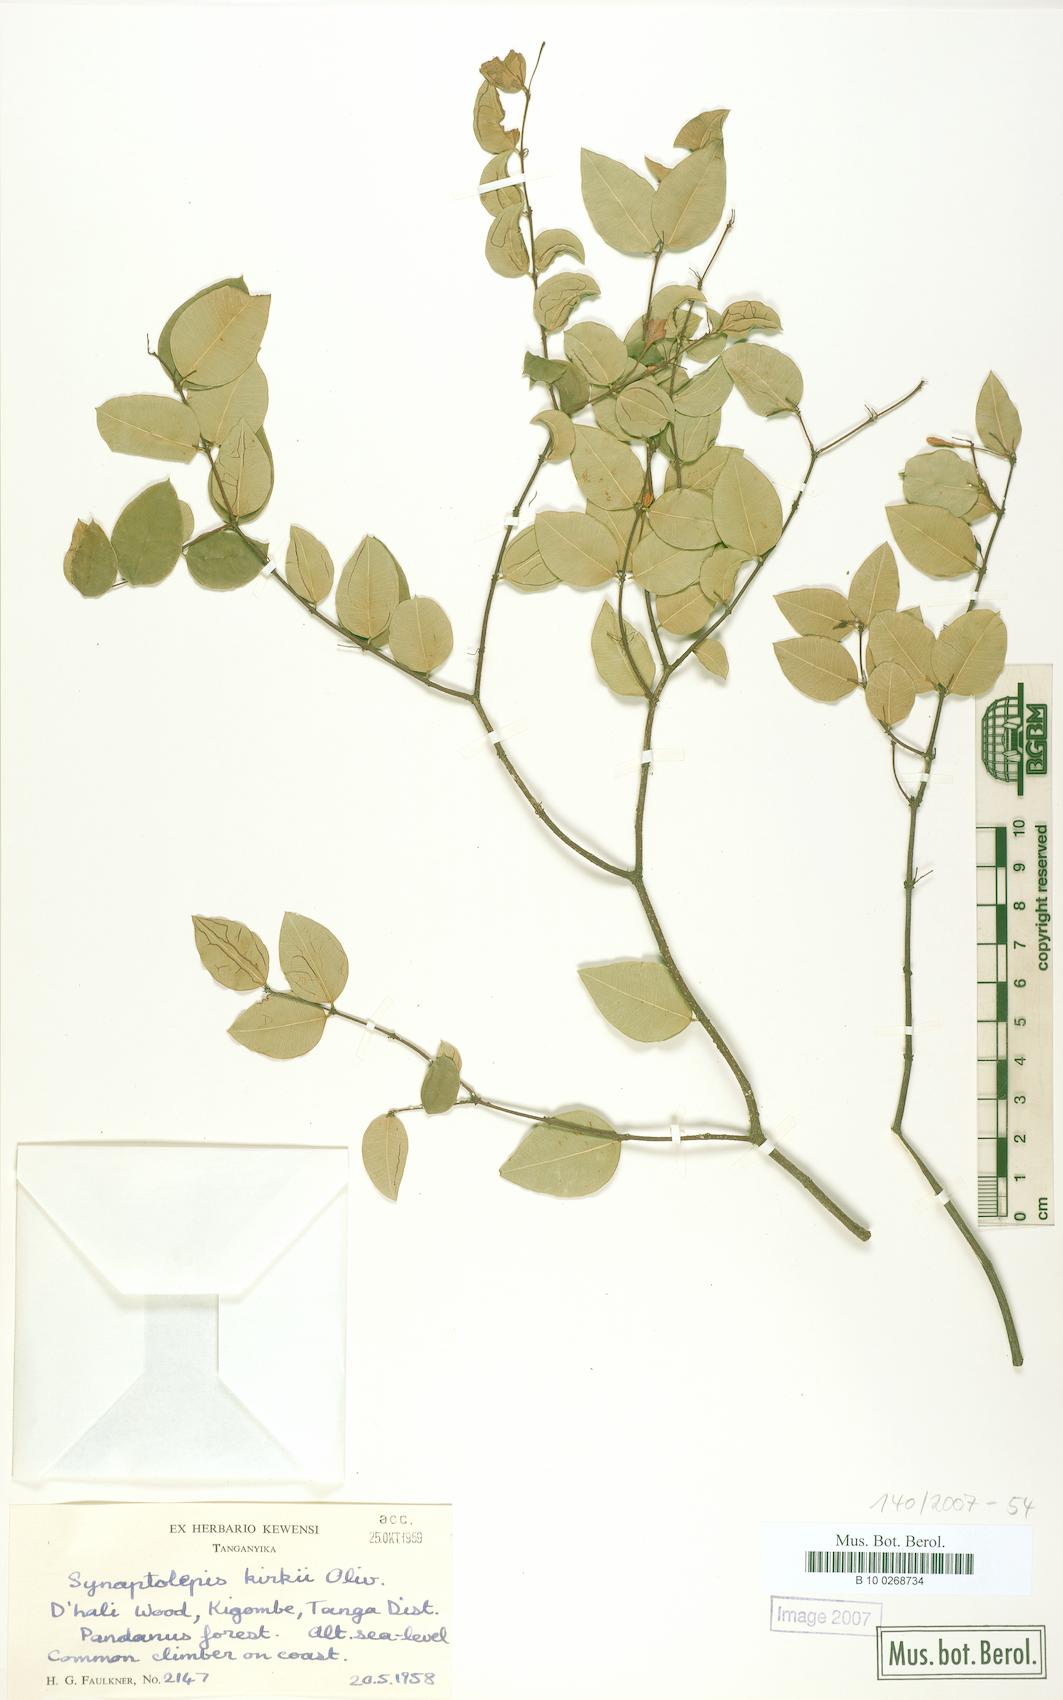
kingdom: Plantae
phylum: Tracheophyta
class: Magnoliopsida
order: Malvales
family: Thymelaeaceae
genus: Synaptolepis
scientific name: Synaptolepis kirkii
